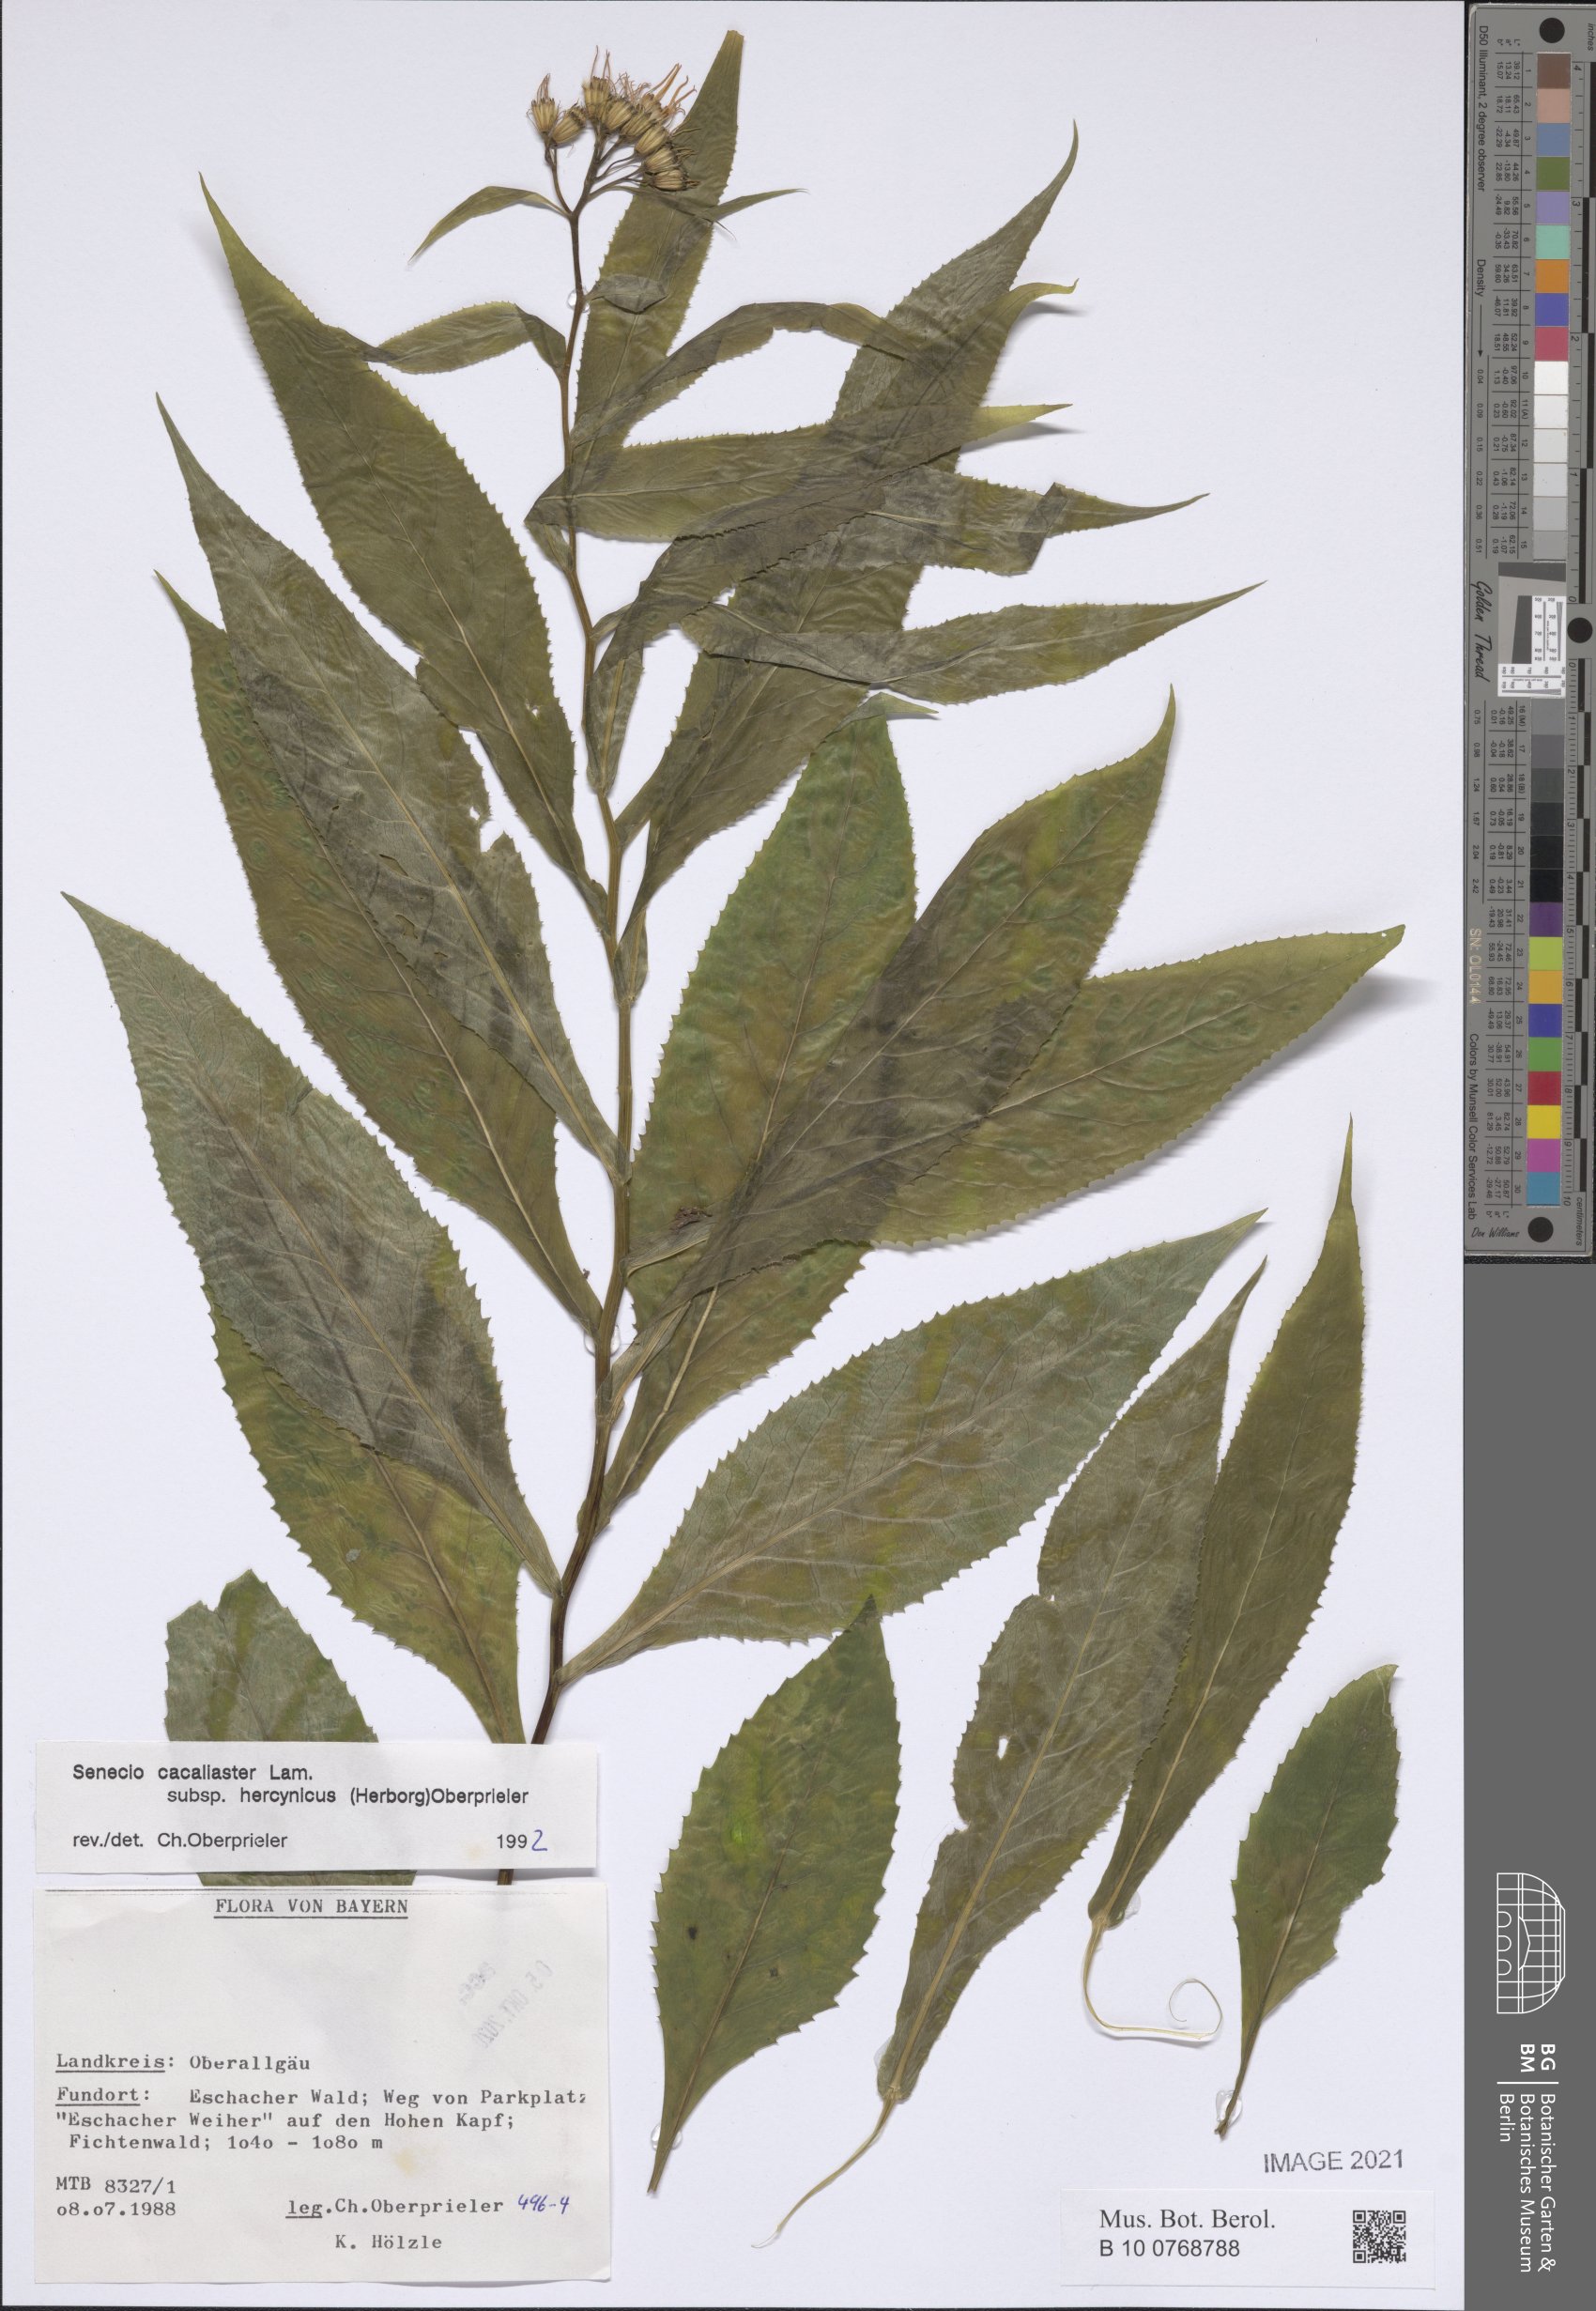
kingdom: Plantae
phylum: Tracheophyta
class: Magnoliopsida
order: Asterales
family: Asteraceae
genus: Senecio
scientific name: Senecio hercynicus
